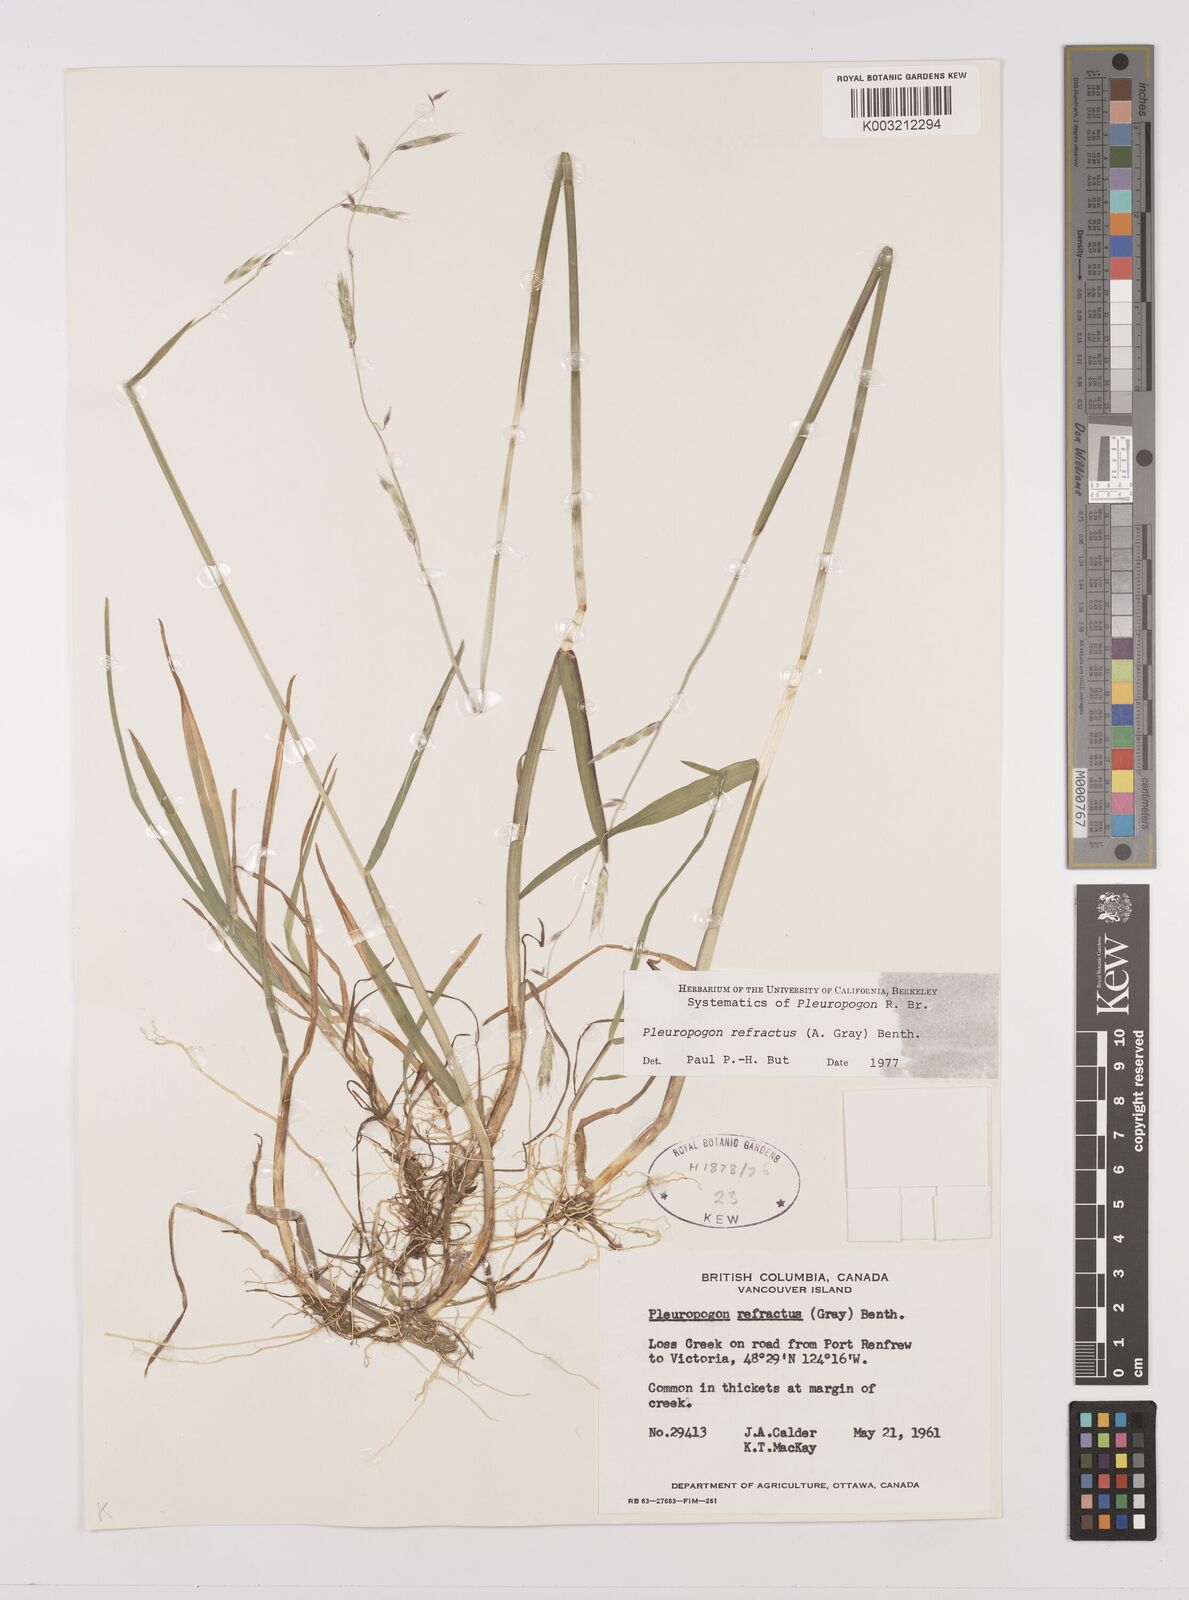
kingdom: Plantae
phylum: Tracheophyta
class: Liliopsida
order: Poales
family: Poaceae
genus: Pleuropogon
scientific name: Pleuropogon refractus
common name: Nodding false semaphoregrass
